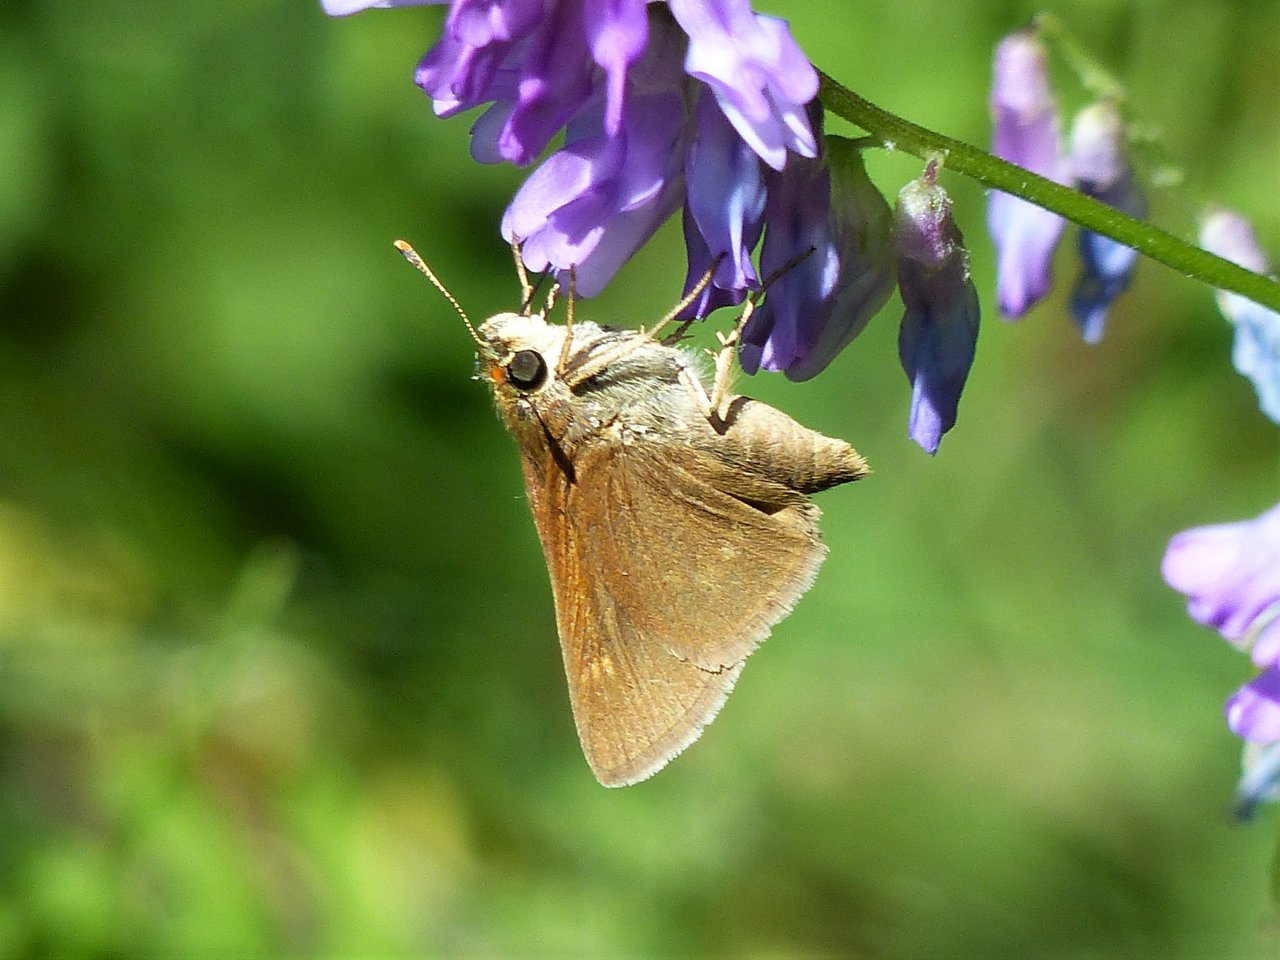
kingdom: Animalia
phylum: Arthropoda
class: Insecta
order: Lepidoptera
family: Hesperiidae
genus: Polites
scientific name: Polites
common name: Crossline Skipper
